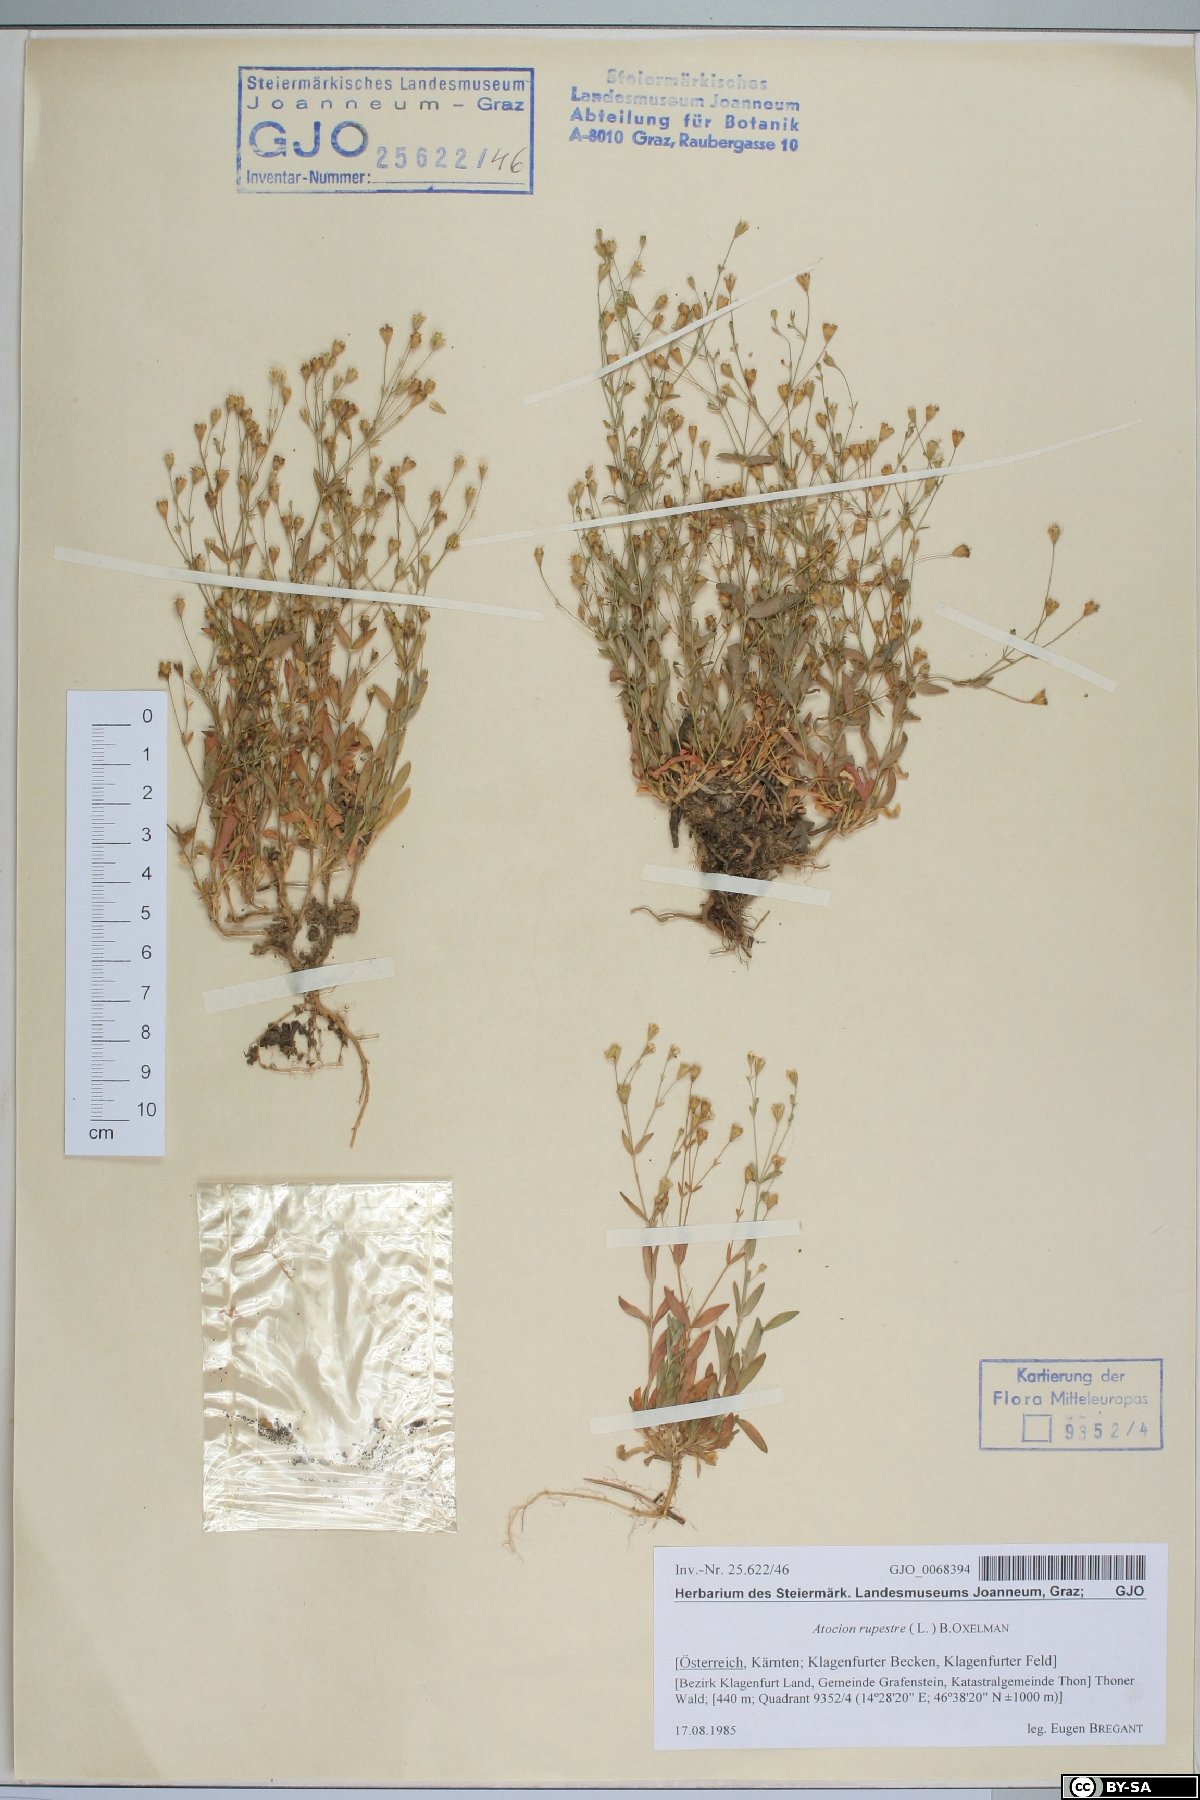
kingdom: Plantae
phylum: Tracheophyta
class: Magnoliopsida
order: Caryophyllales
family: Caryophyllaceae
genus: Atocion
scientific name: Atocion rupestre
